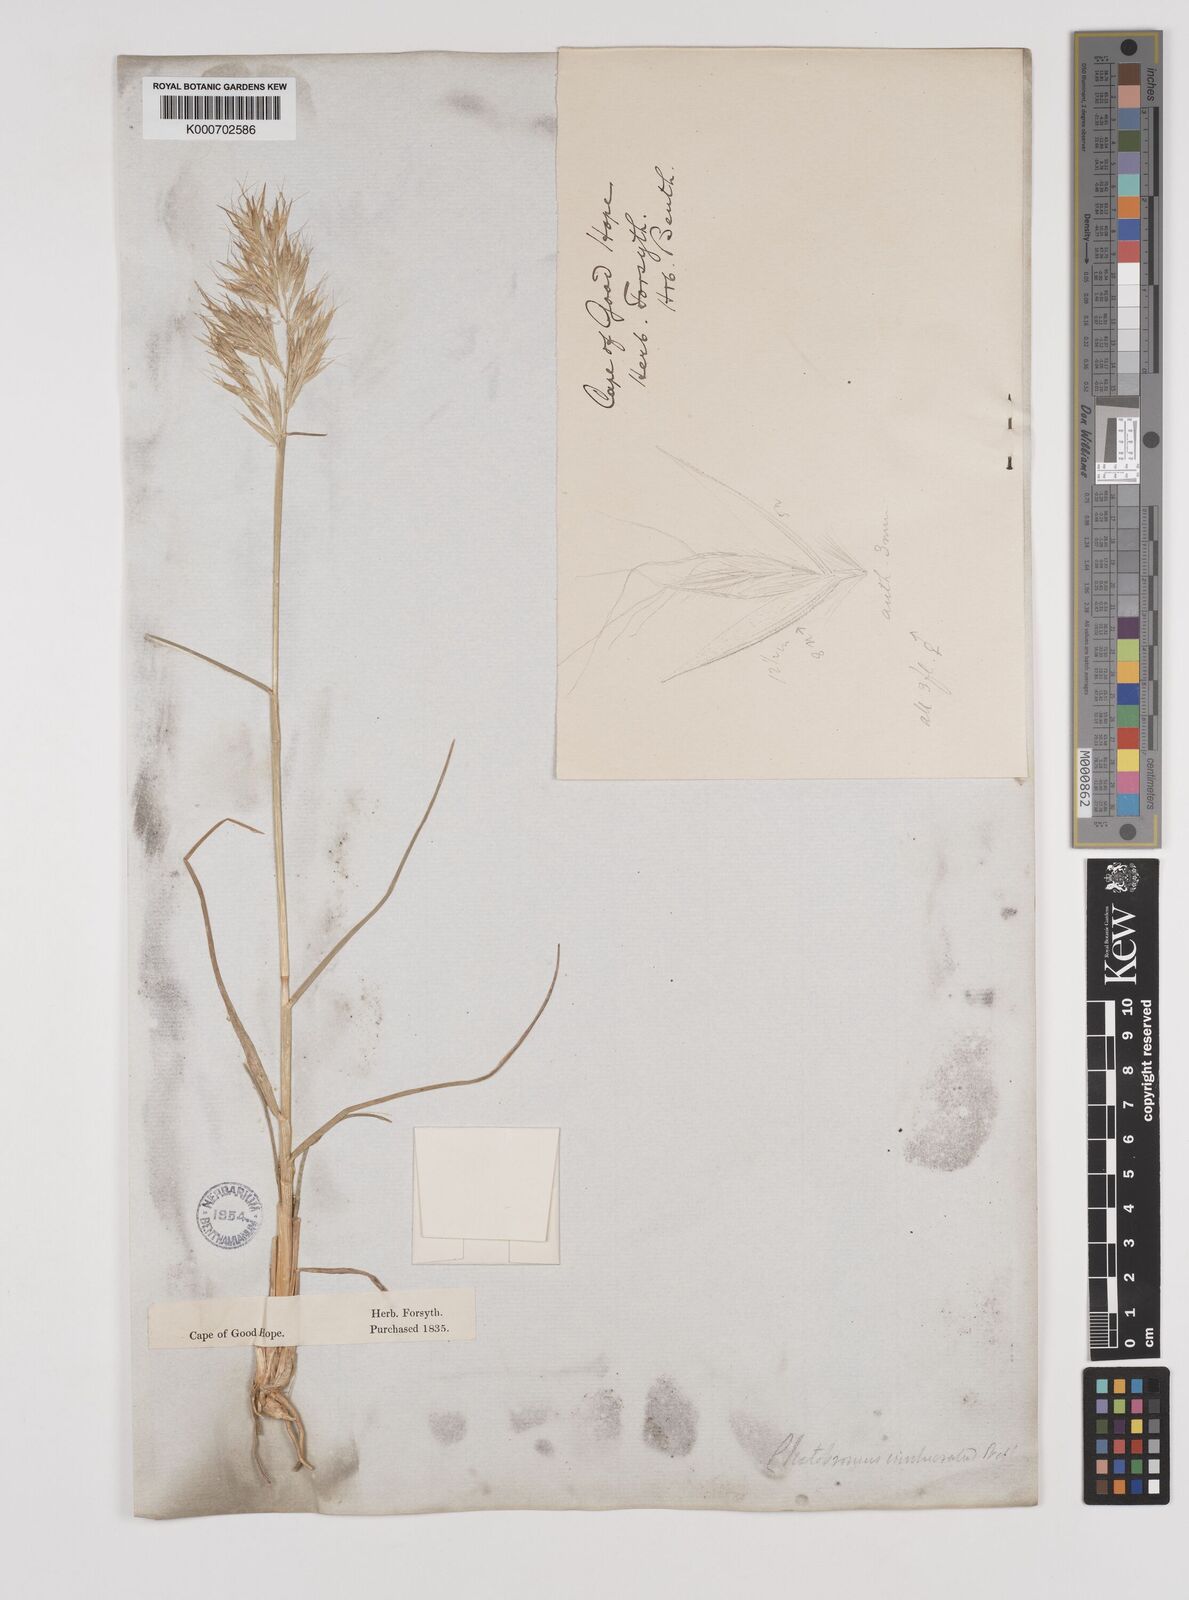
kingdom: Plantae
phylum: Tracheophyta
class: Liliopsida
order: Poales
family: Poaceae
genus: Chaetobromus
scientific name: Chaetobromus involucratus
